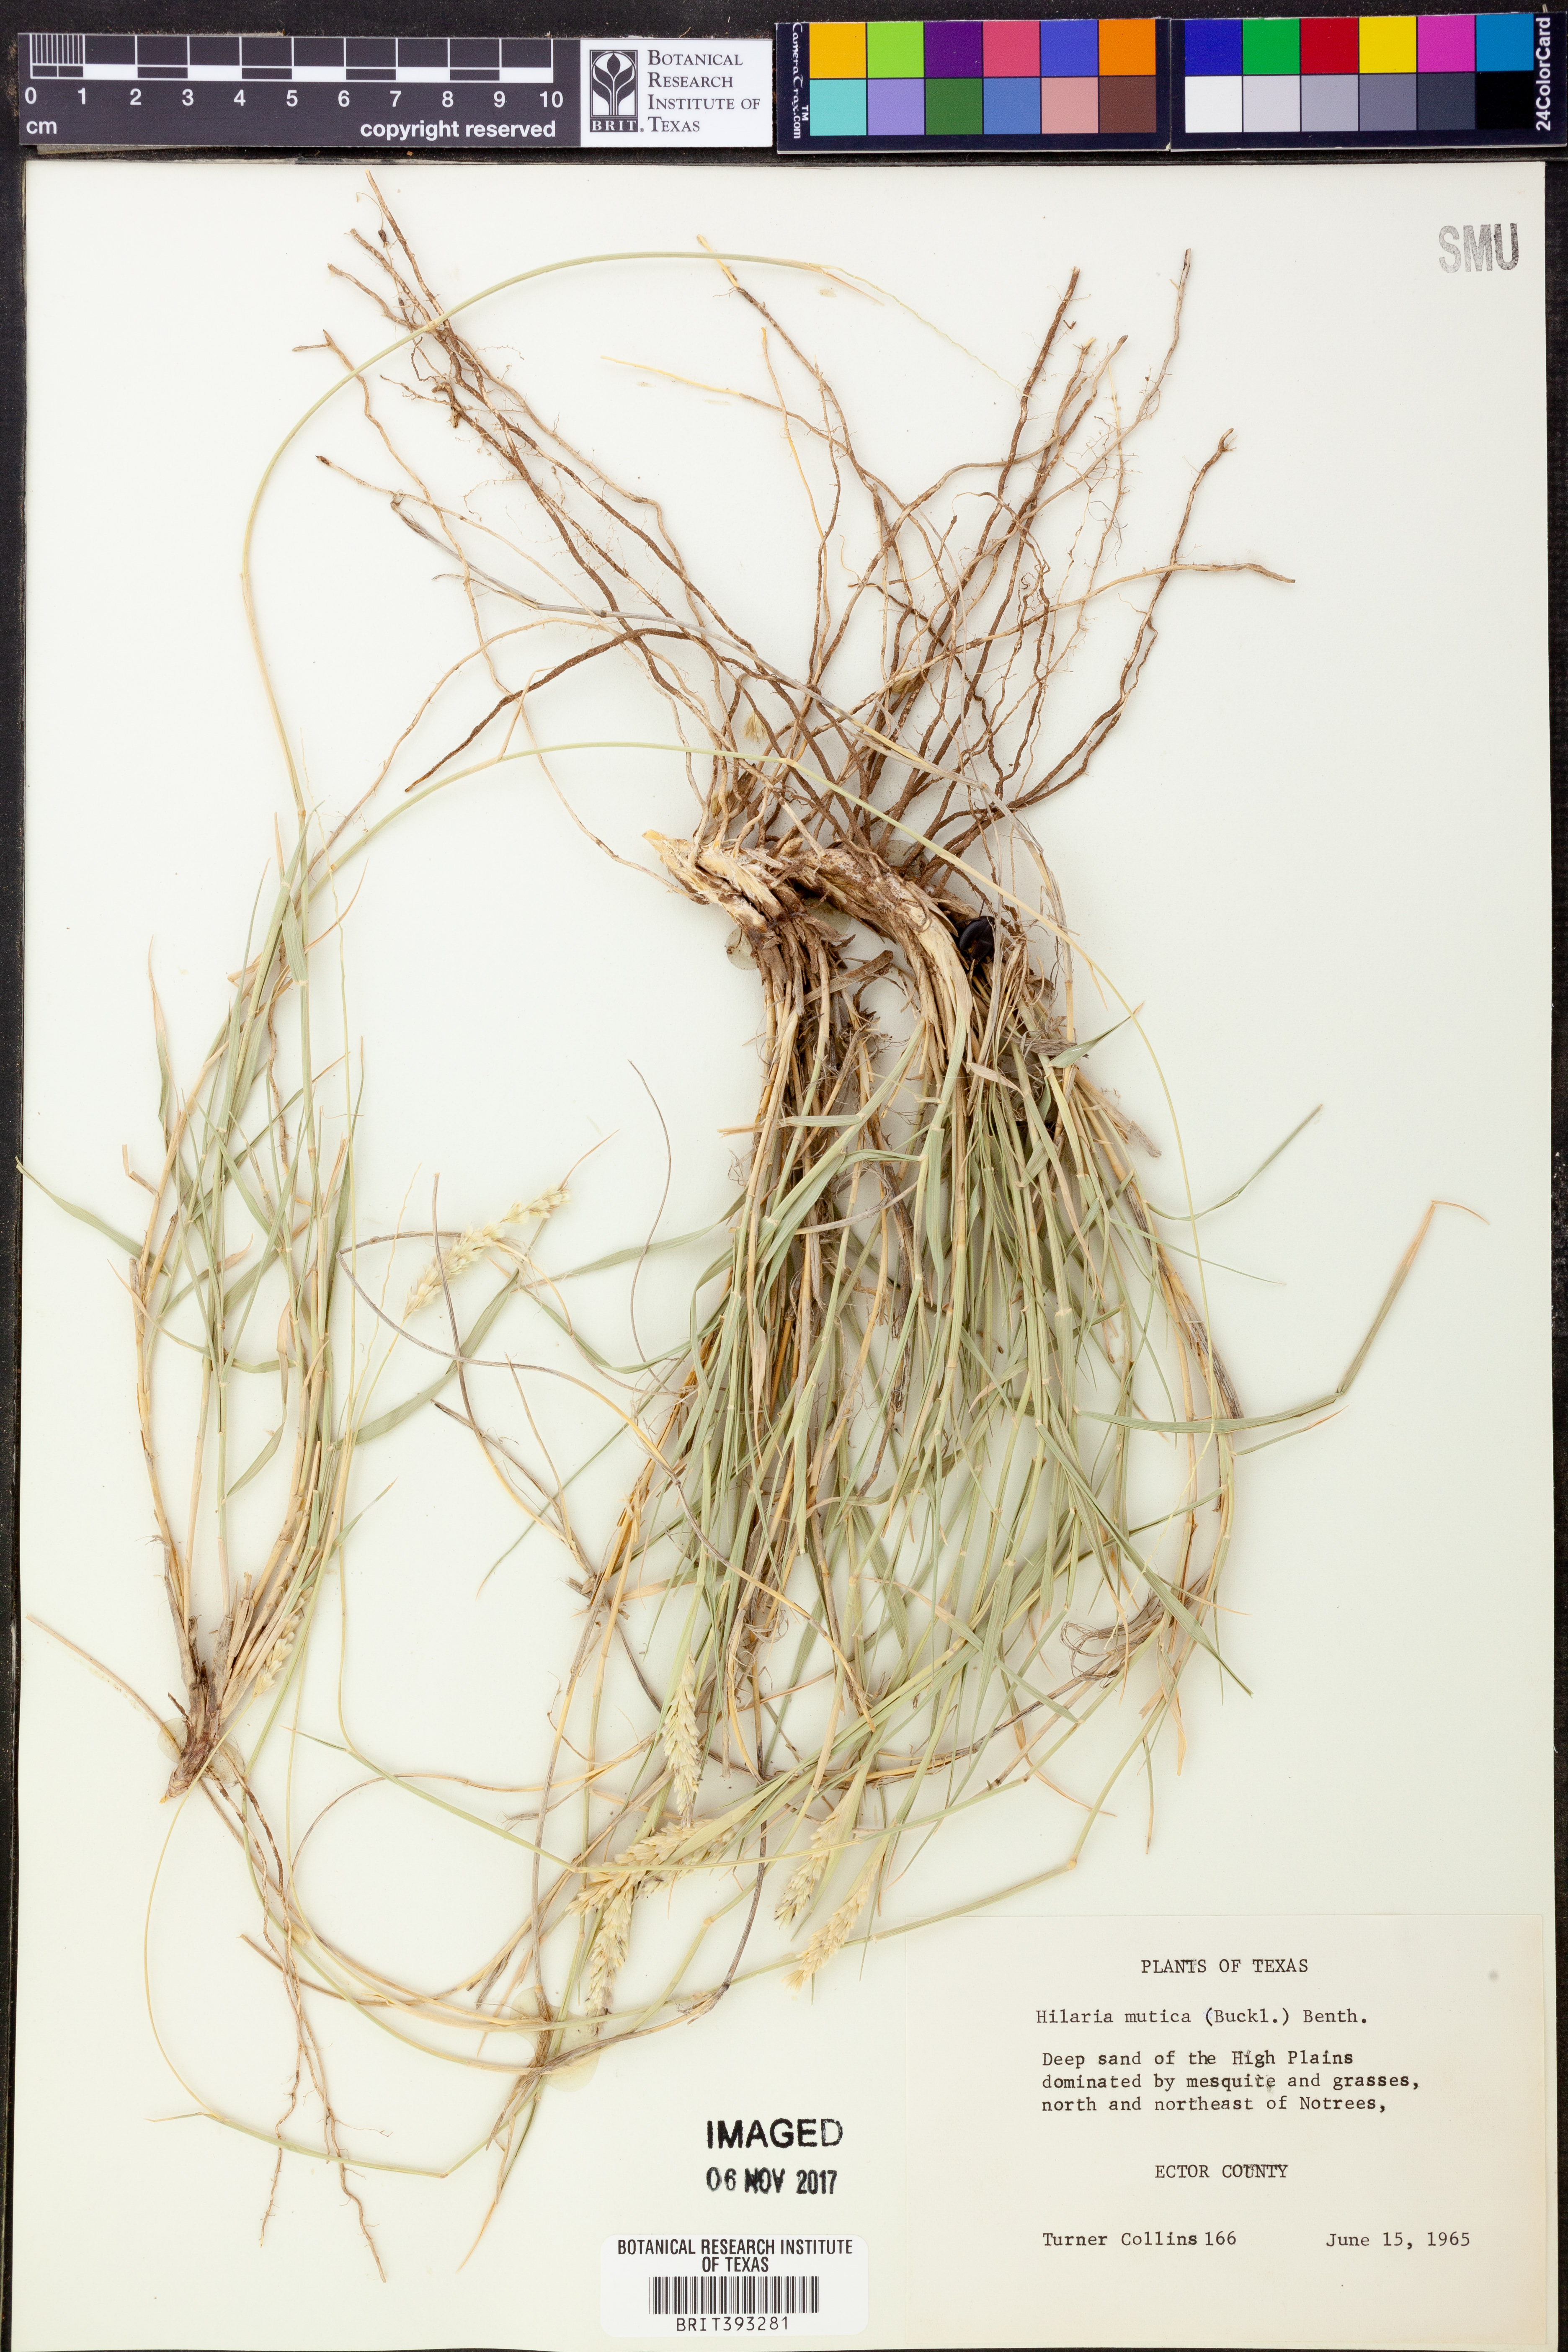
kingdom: Plantae
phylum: Tracheophyta
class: Liliopsida
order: Poales
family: Poaceae
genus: Hilaria
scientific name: Hilaria mutica
